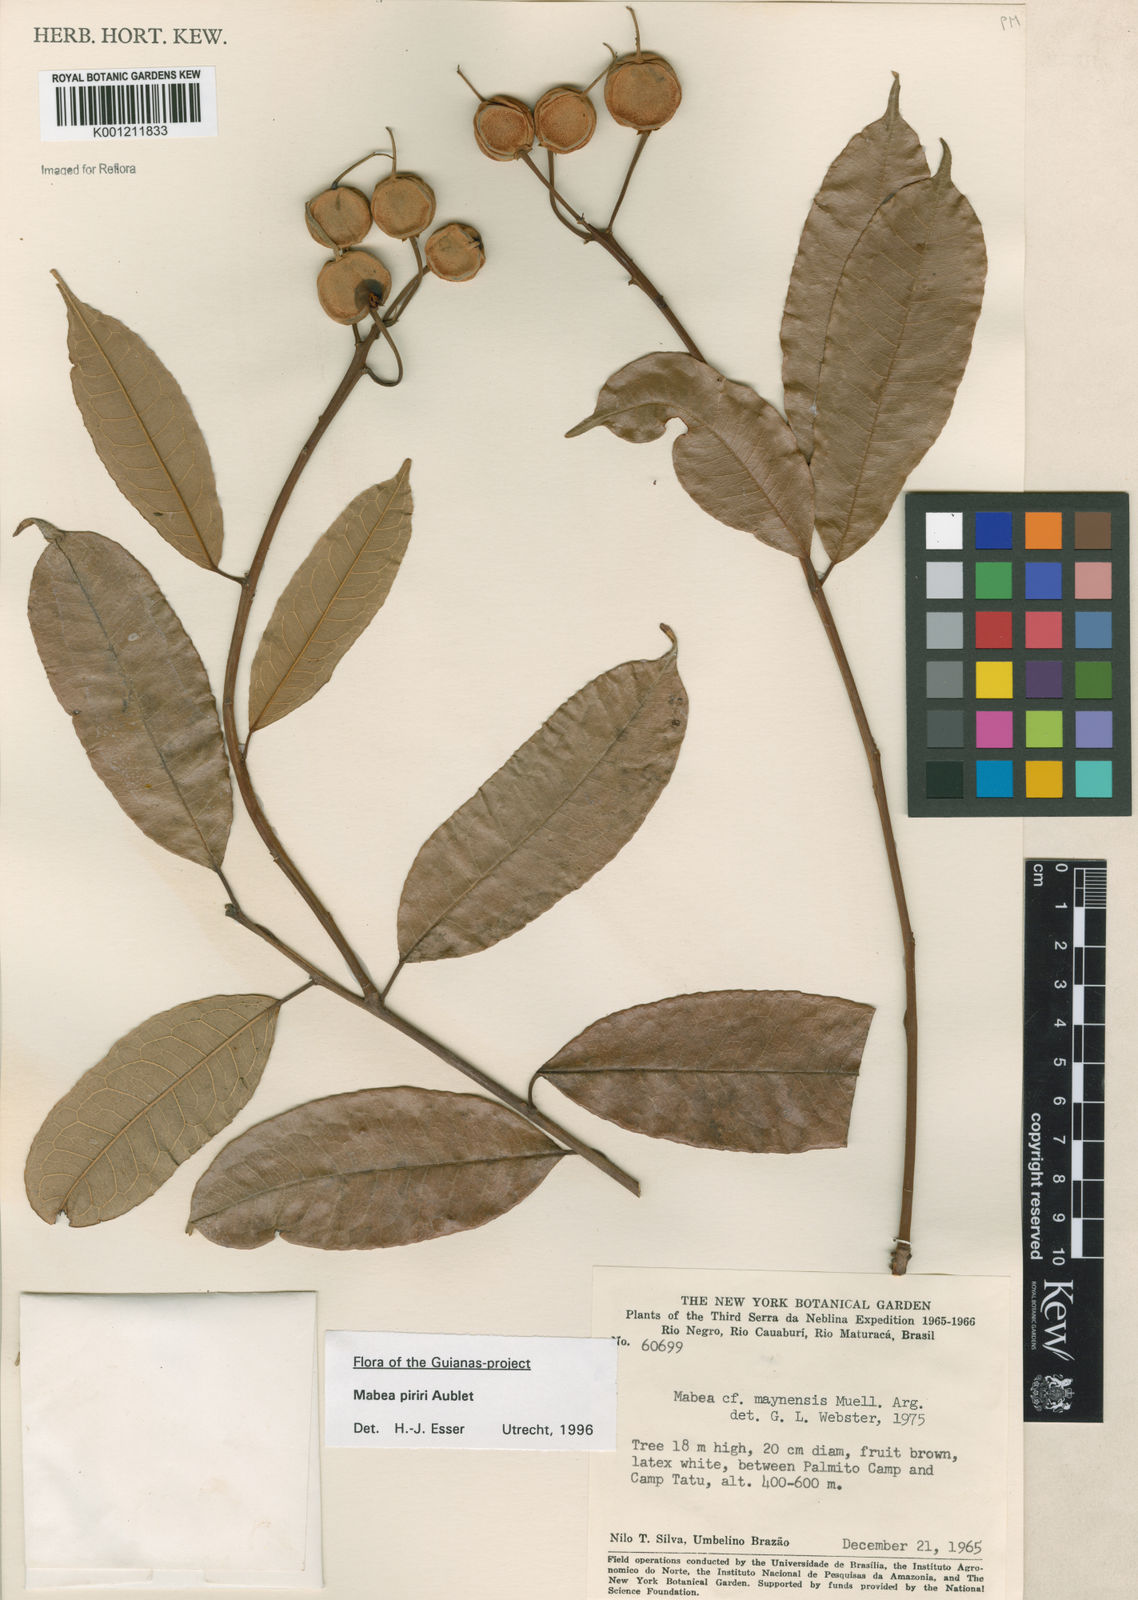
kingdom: Plantae
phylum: Tracheophyta
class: Magnoliopsida
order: Malpighiales
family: Euphorbiaceae
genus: Mabea
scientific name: Mabea piriri
